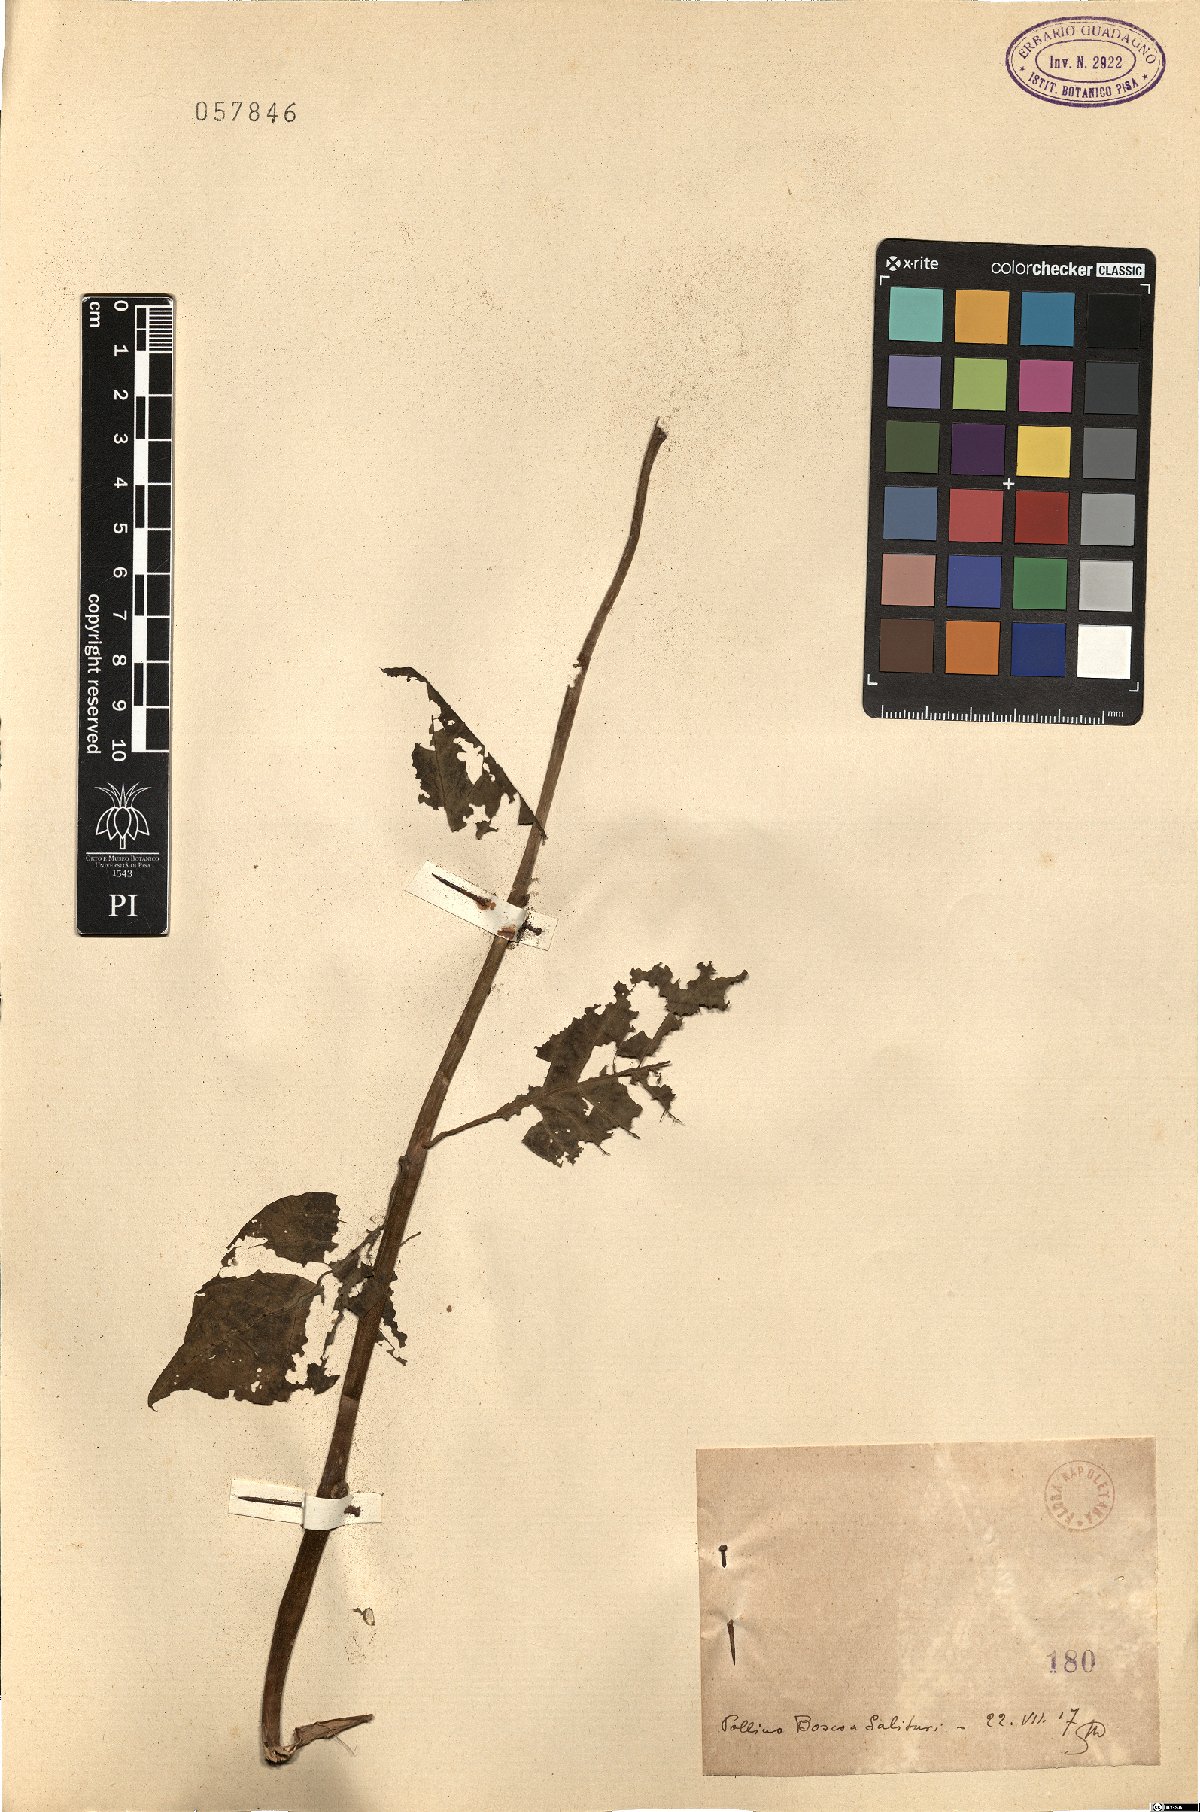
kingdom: Plantae
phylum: Tracheophyta
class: Magnoliopsida
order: Solanales
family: Solanaceae
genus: Atropa
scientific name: Atropa
